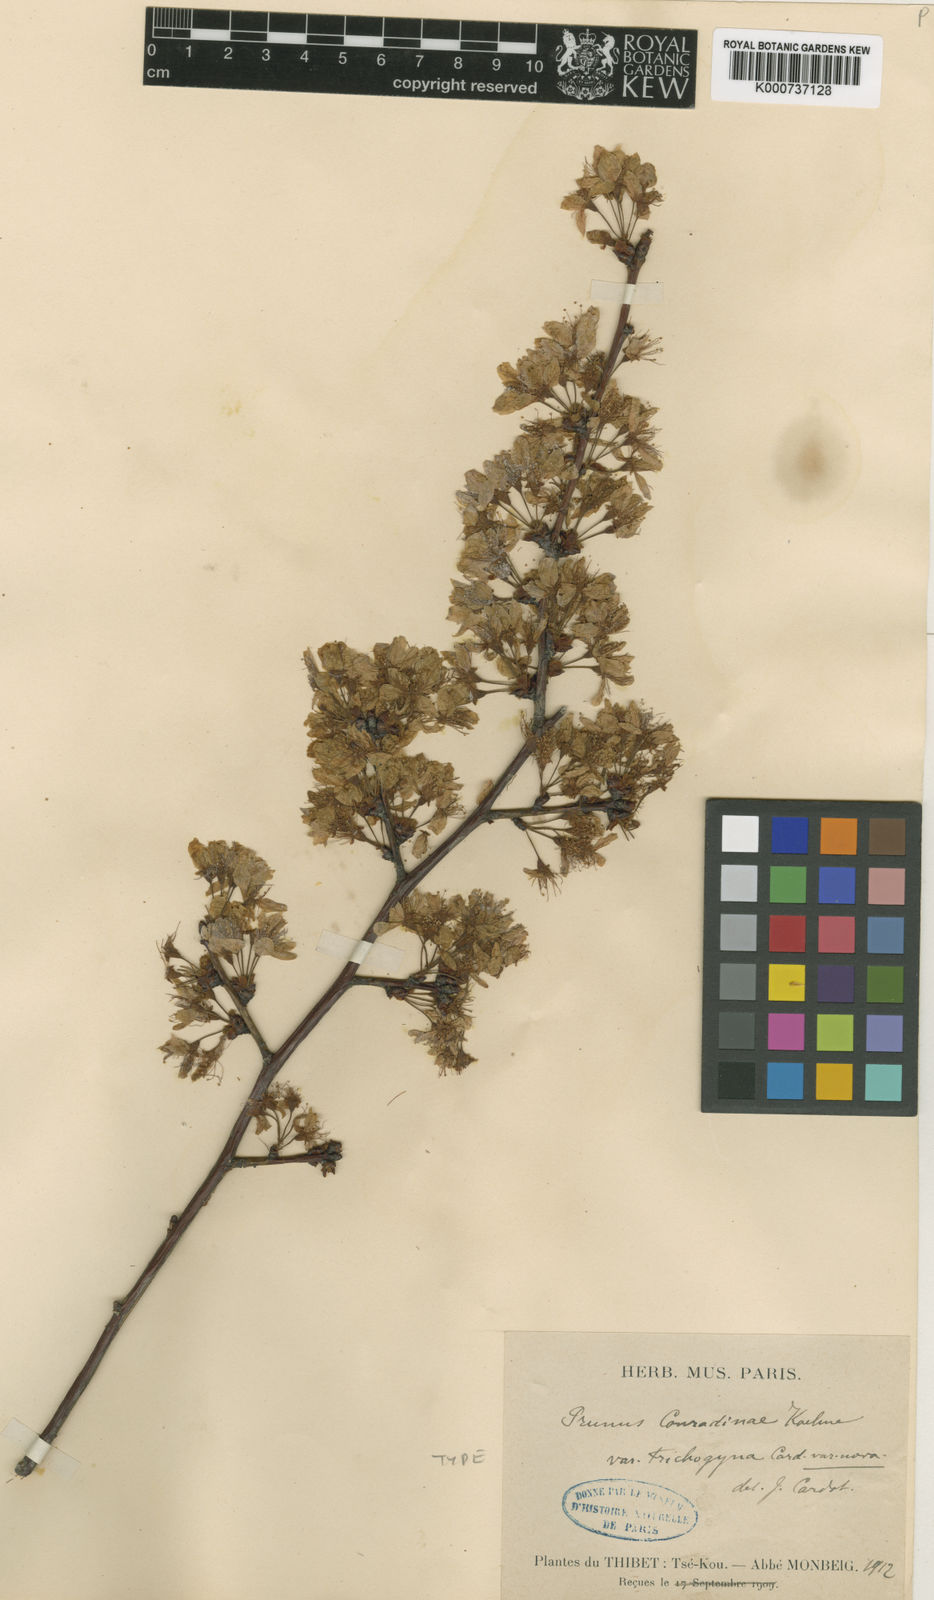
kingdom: Plantae
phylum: Tracheophyta
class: Magnoliopsida
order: Rosales
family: Rosaceae
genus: Prunus
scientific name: Prunus conradinae
